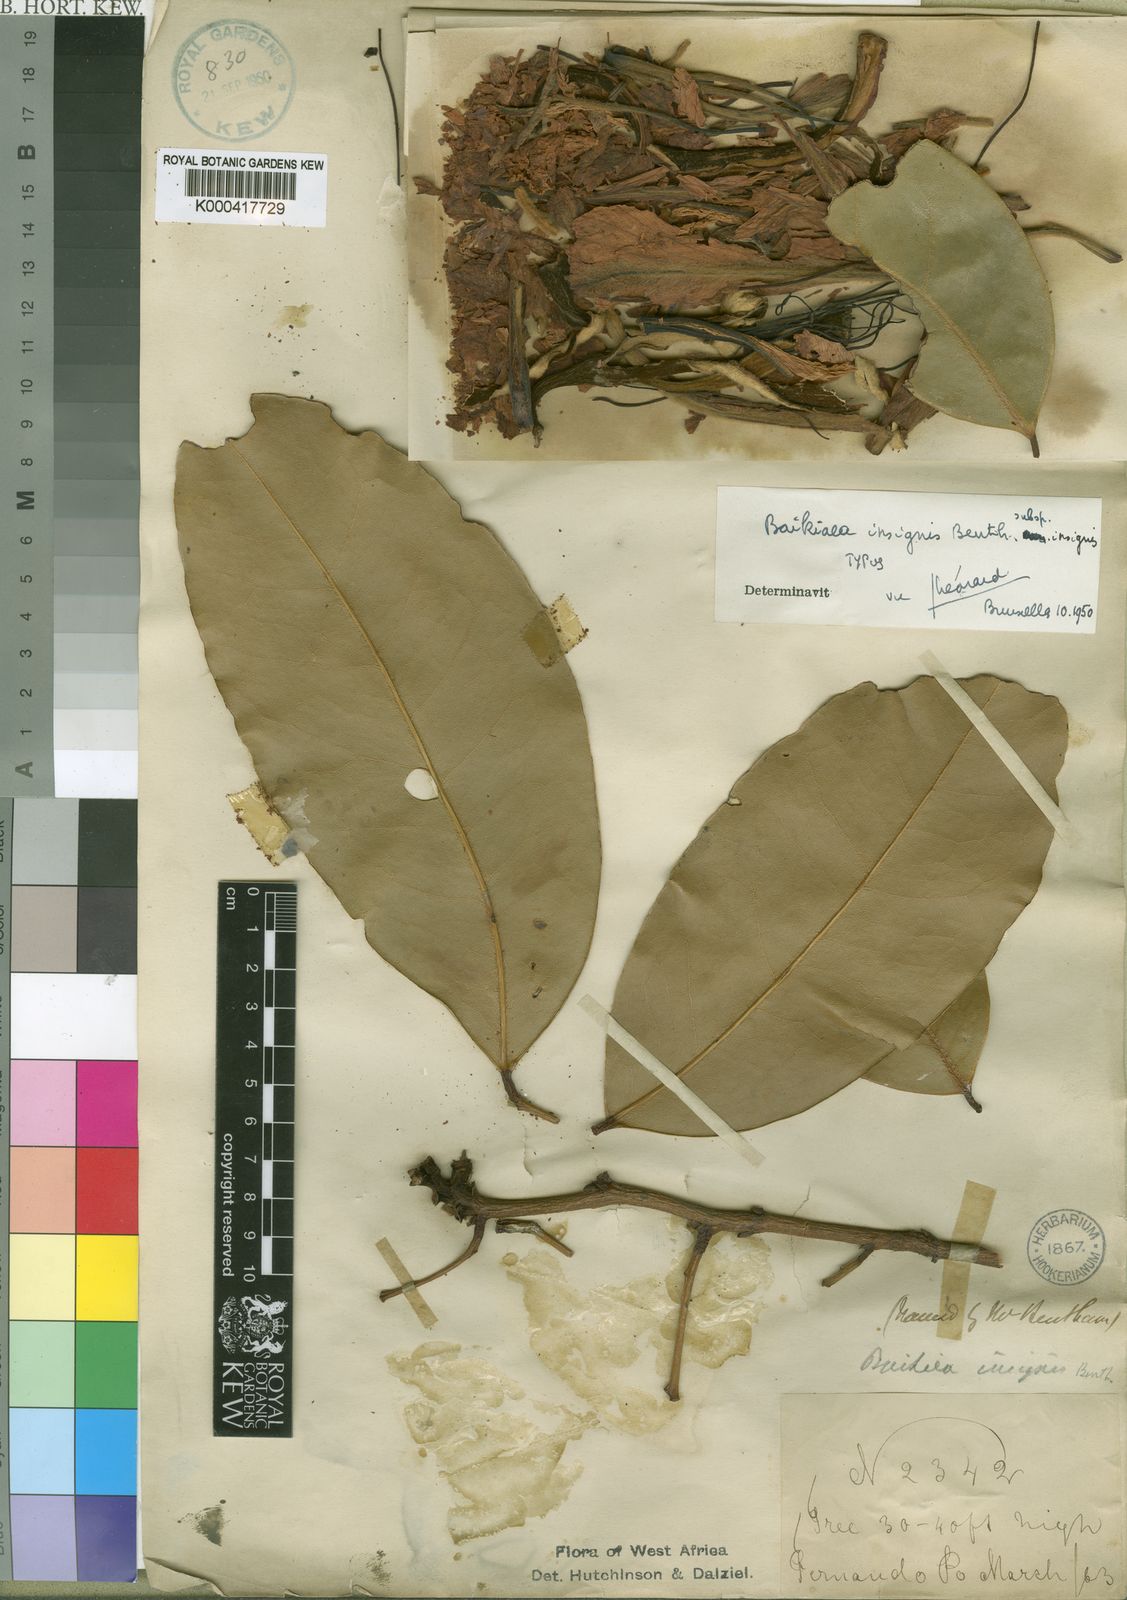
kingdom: Plantae
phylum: Tracheophyta
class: Magnoliopsida
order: Fabales
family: Fabaceae
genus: Baikiaea
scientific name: Baikiaea insignis
